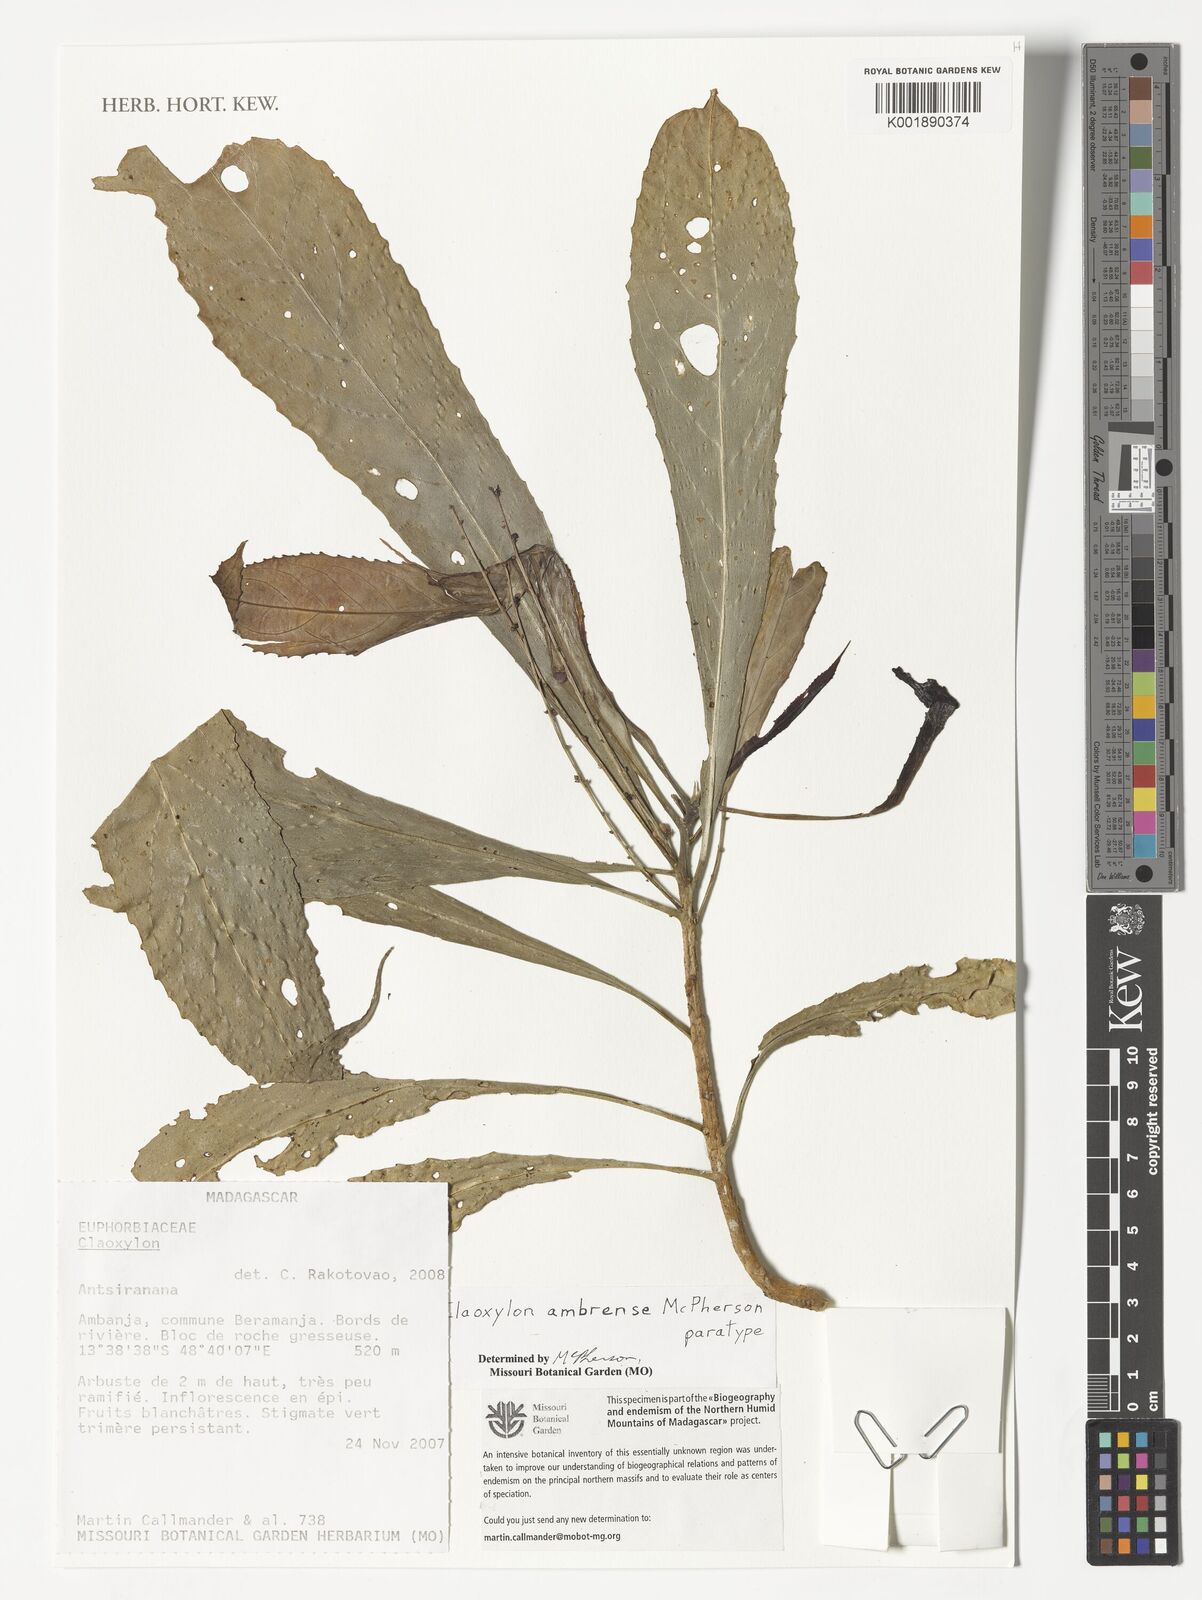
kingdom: Plantae
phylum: Tracheophyta
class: Magnoliopsida
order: Malpighiales
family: Euphorbiaceae
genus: Claoxylon
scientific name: Claoxylon ambrense
